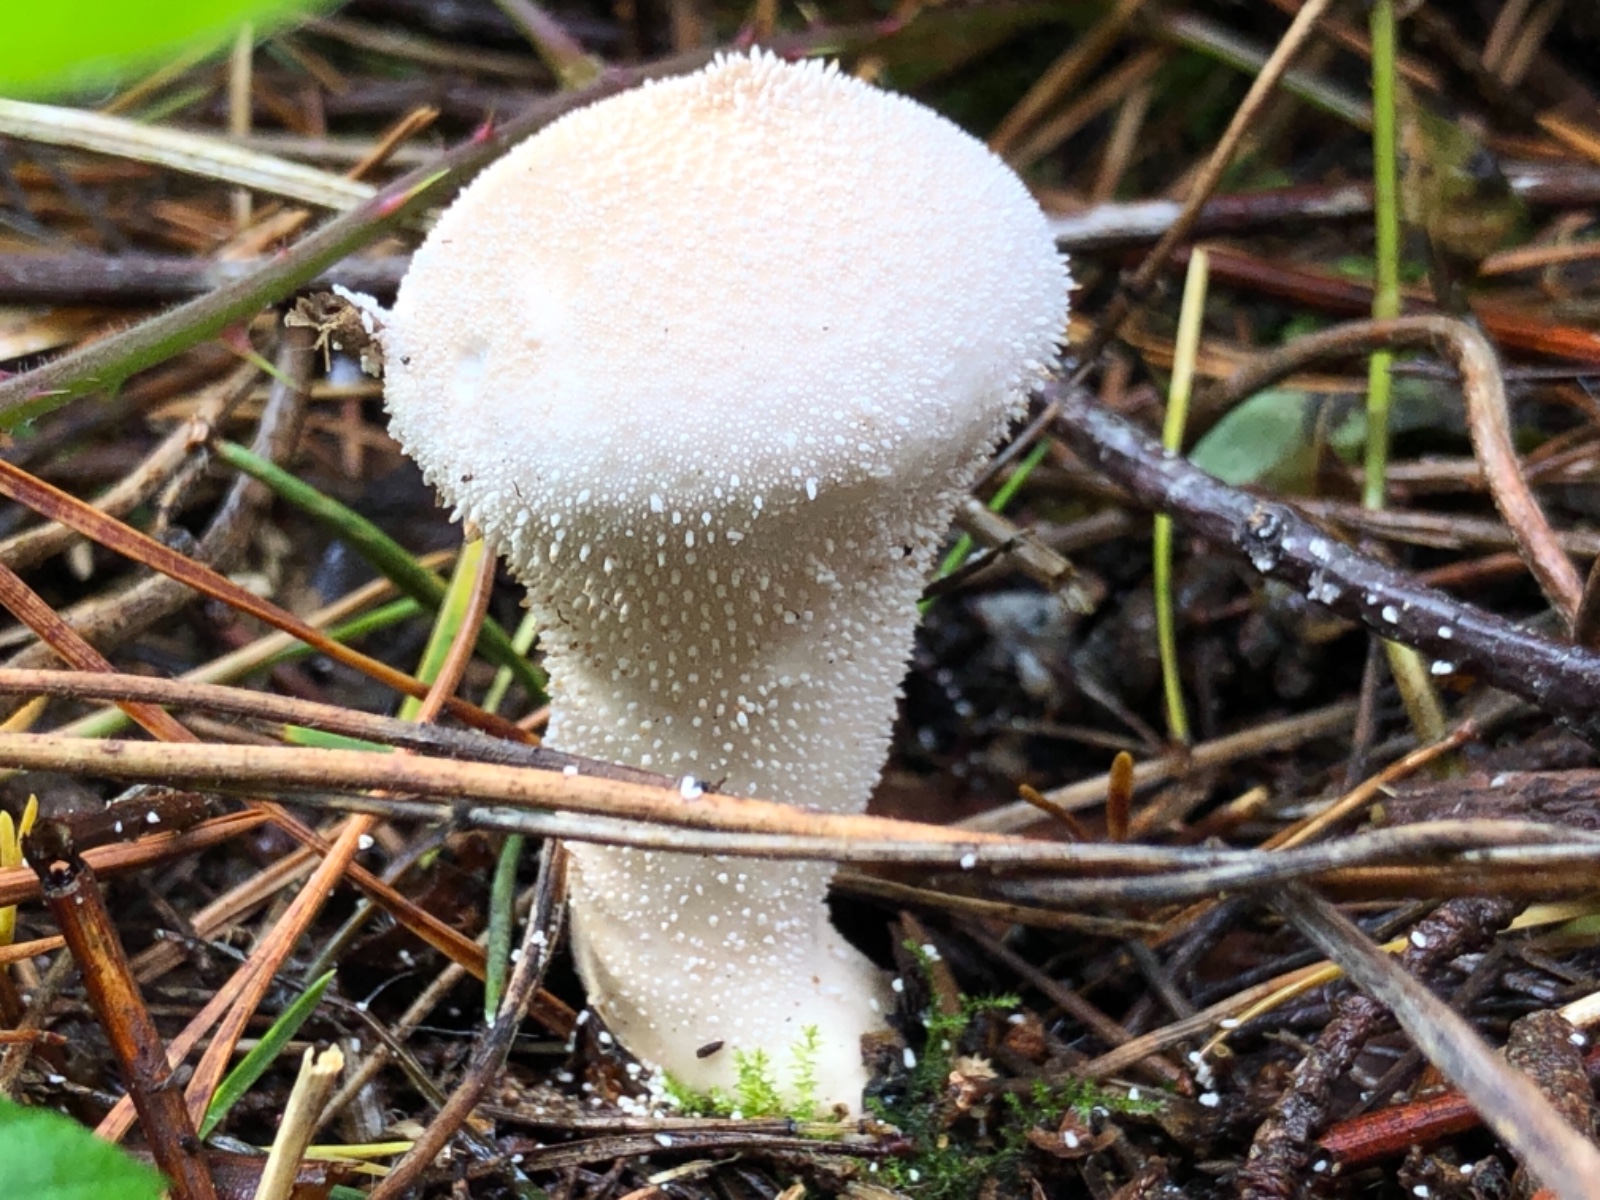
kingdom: Fungi
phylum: Basidiomycota
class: Agaricomycetes
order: Agaricales
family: Lycoperdaceae
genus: Lycoperdon
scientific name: Lycoperdon perlatum
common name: krystal-støvbold
